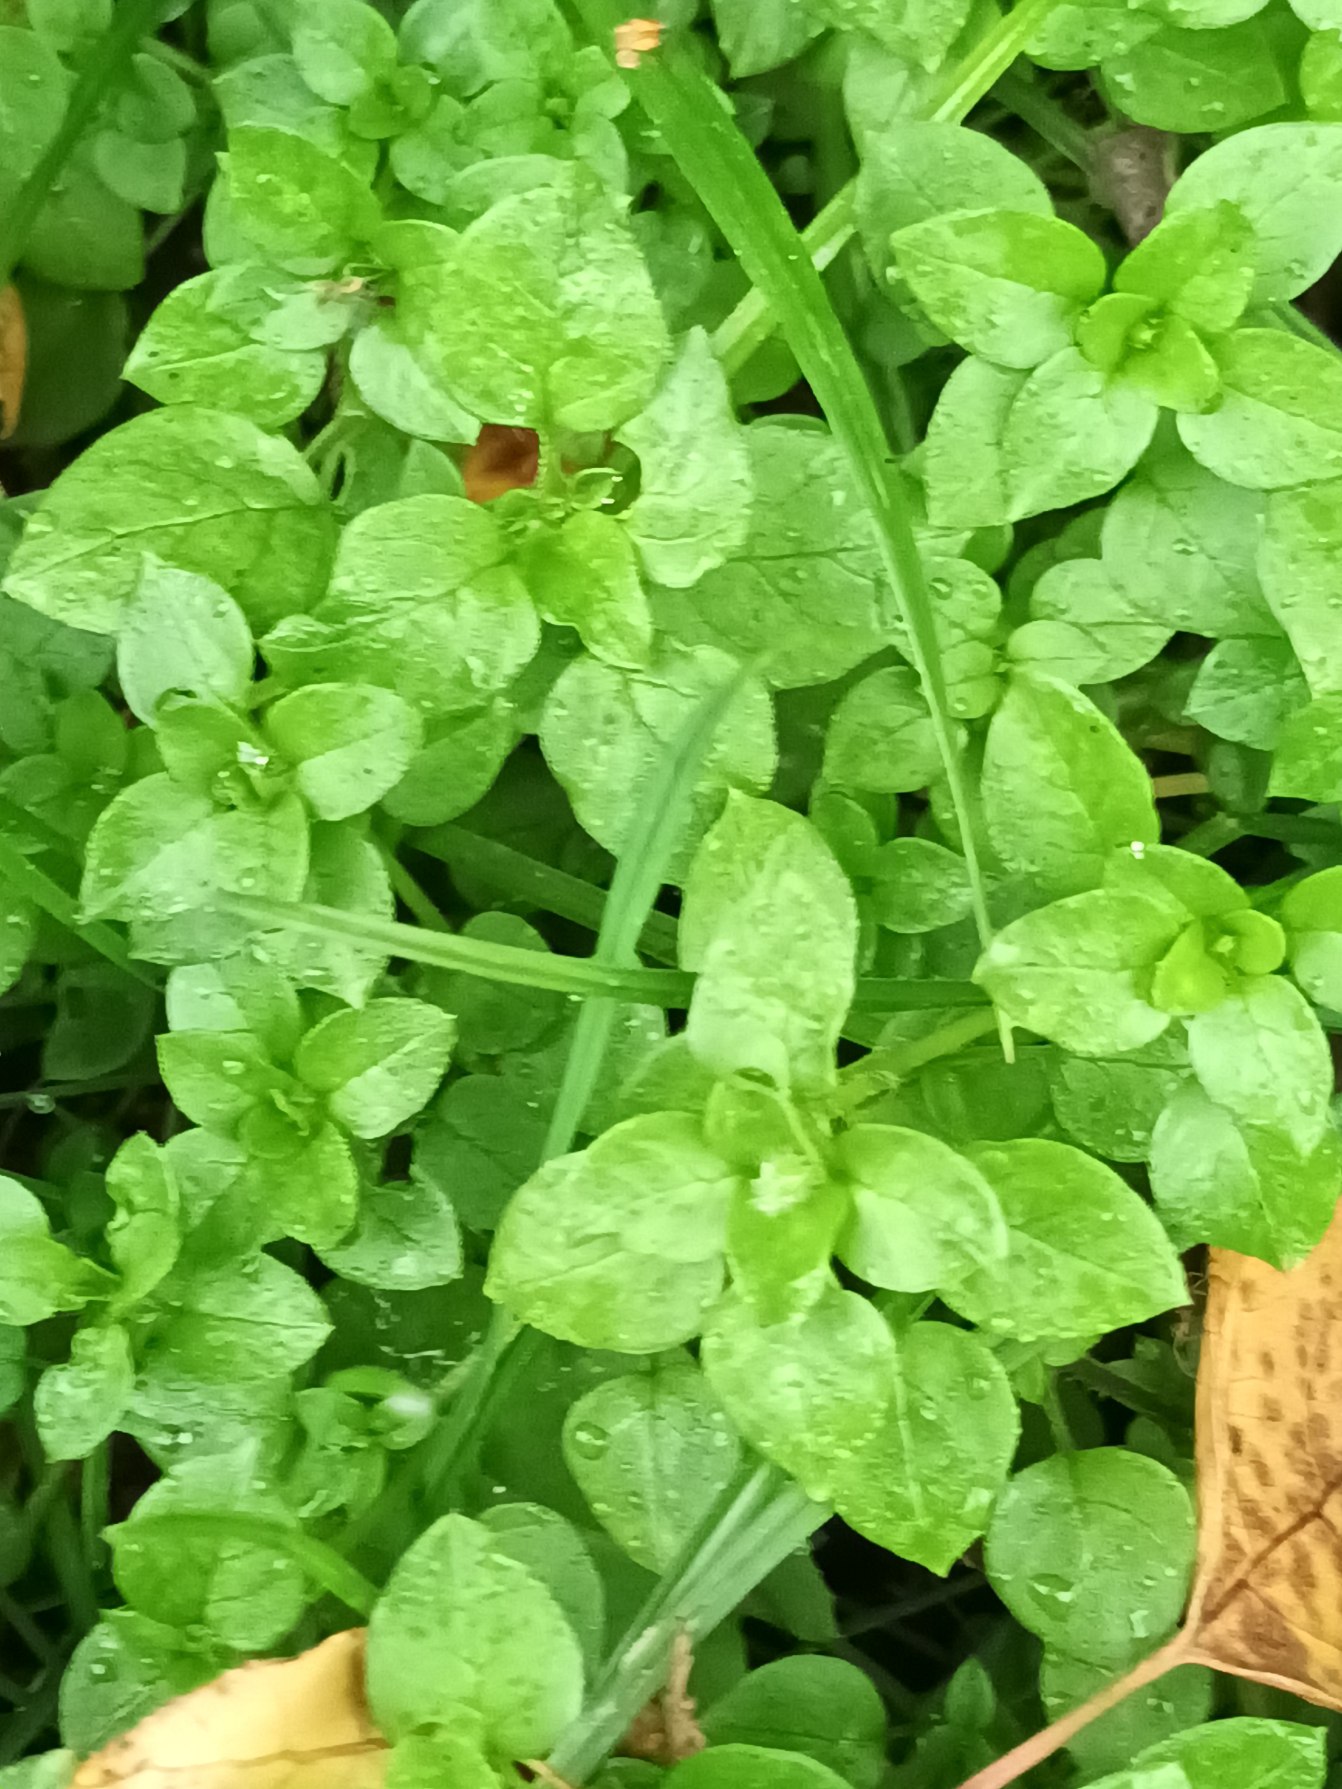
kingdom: Plantae
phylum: Tracheophyta
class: Magnoliopsida
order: Caryophyllales
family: Caryophyllaceae
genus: Stellaria
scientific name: Stellaria media
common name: Almindelig fuglegræs
